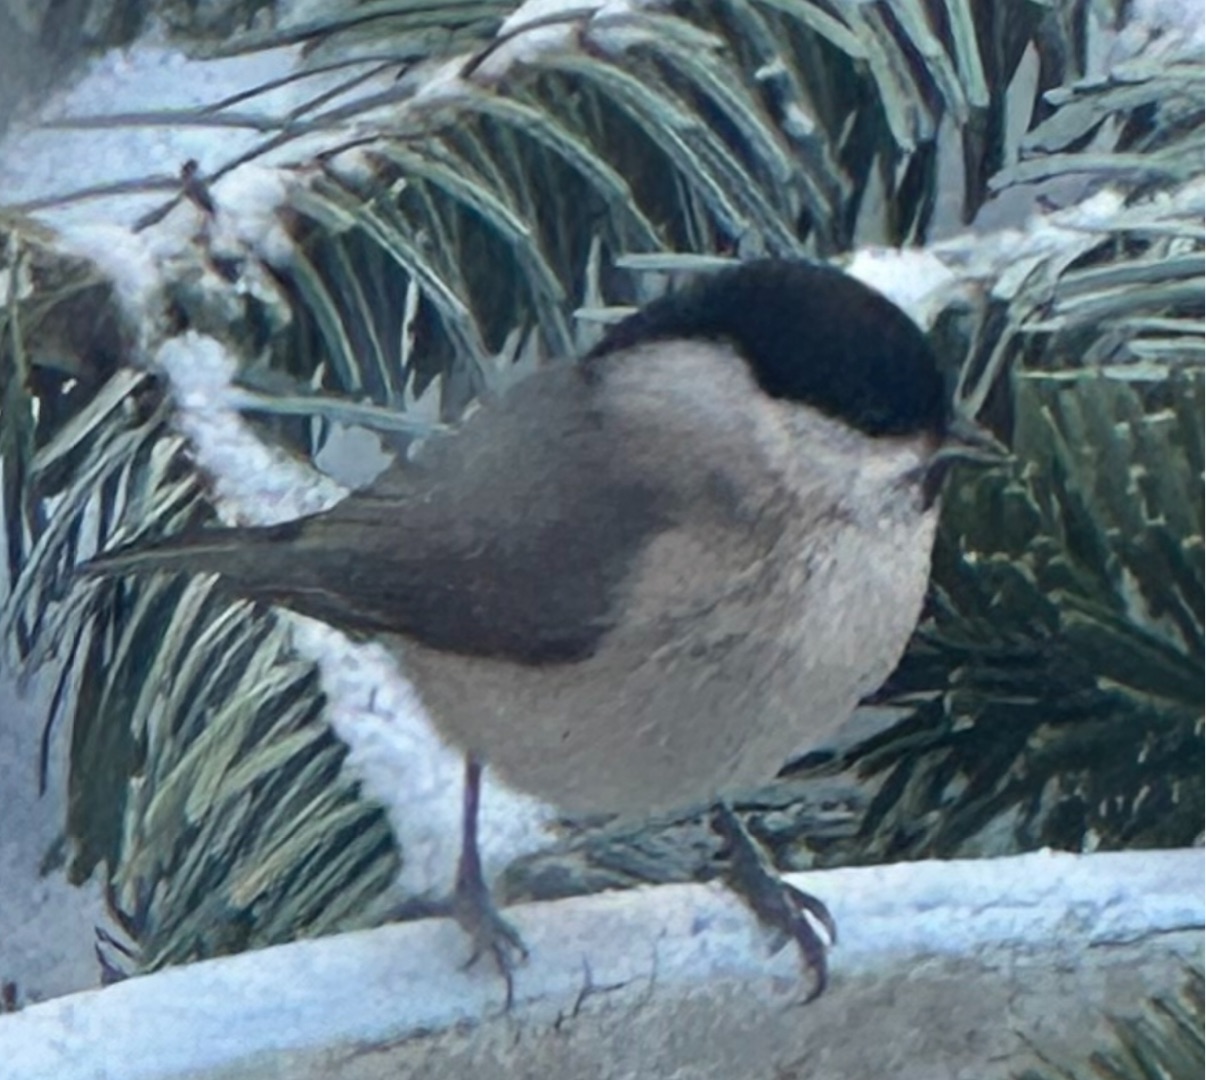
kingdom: Animalia
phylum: Chordata
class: Aves
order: Passeriformes
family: Paridae
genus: Poecile
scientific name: Poecile palustris
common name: Sumpmejse
